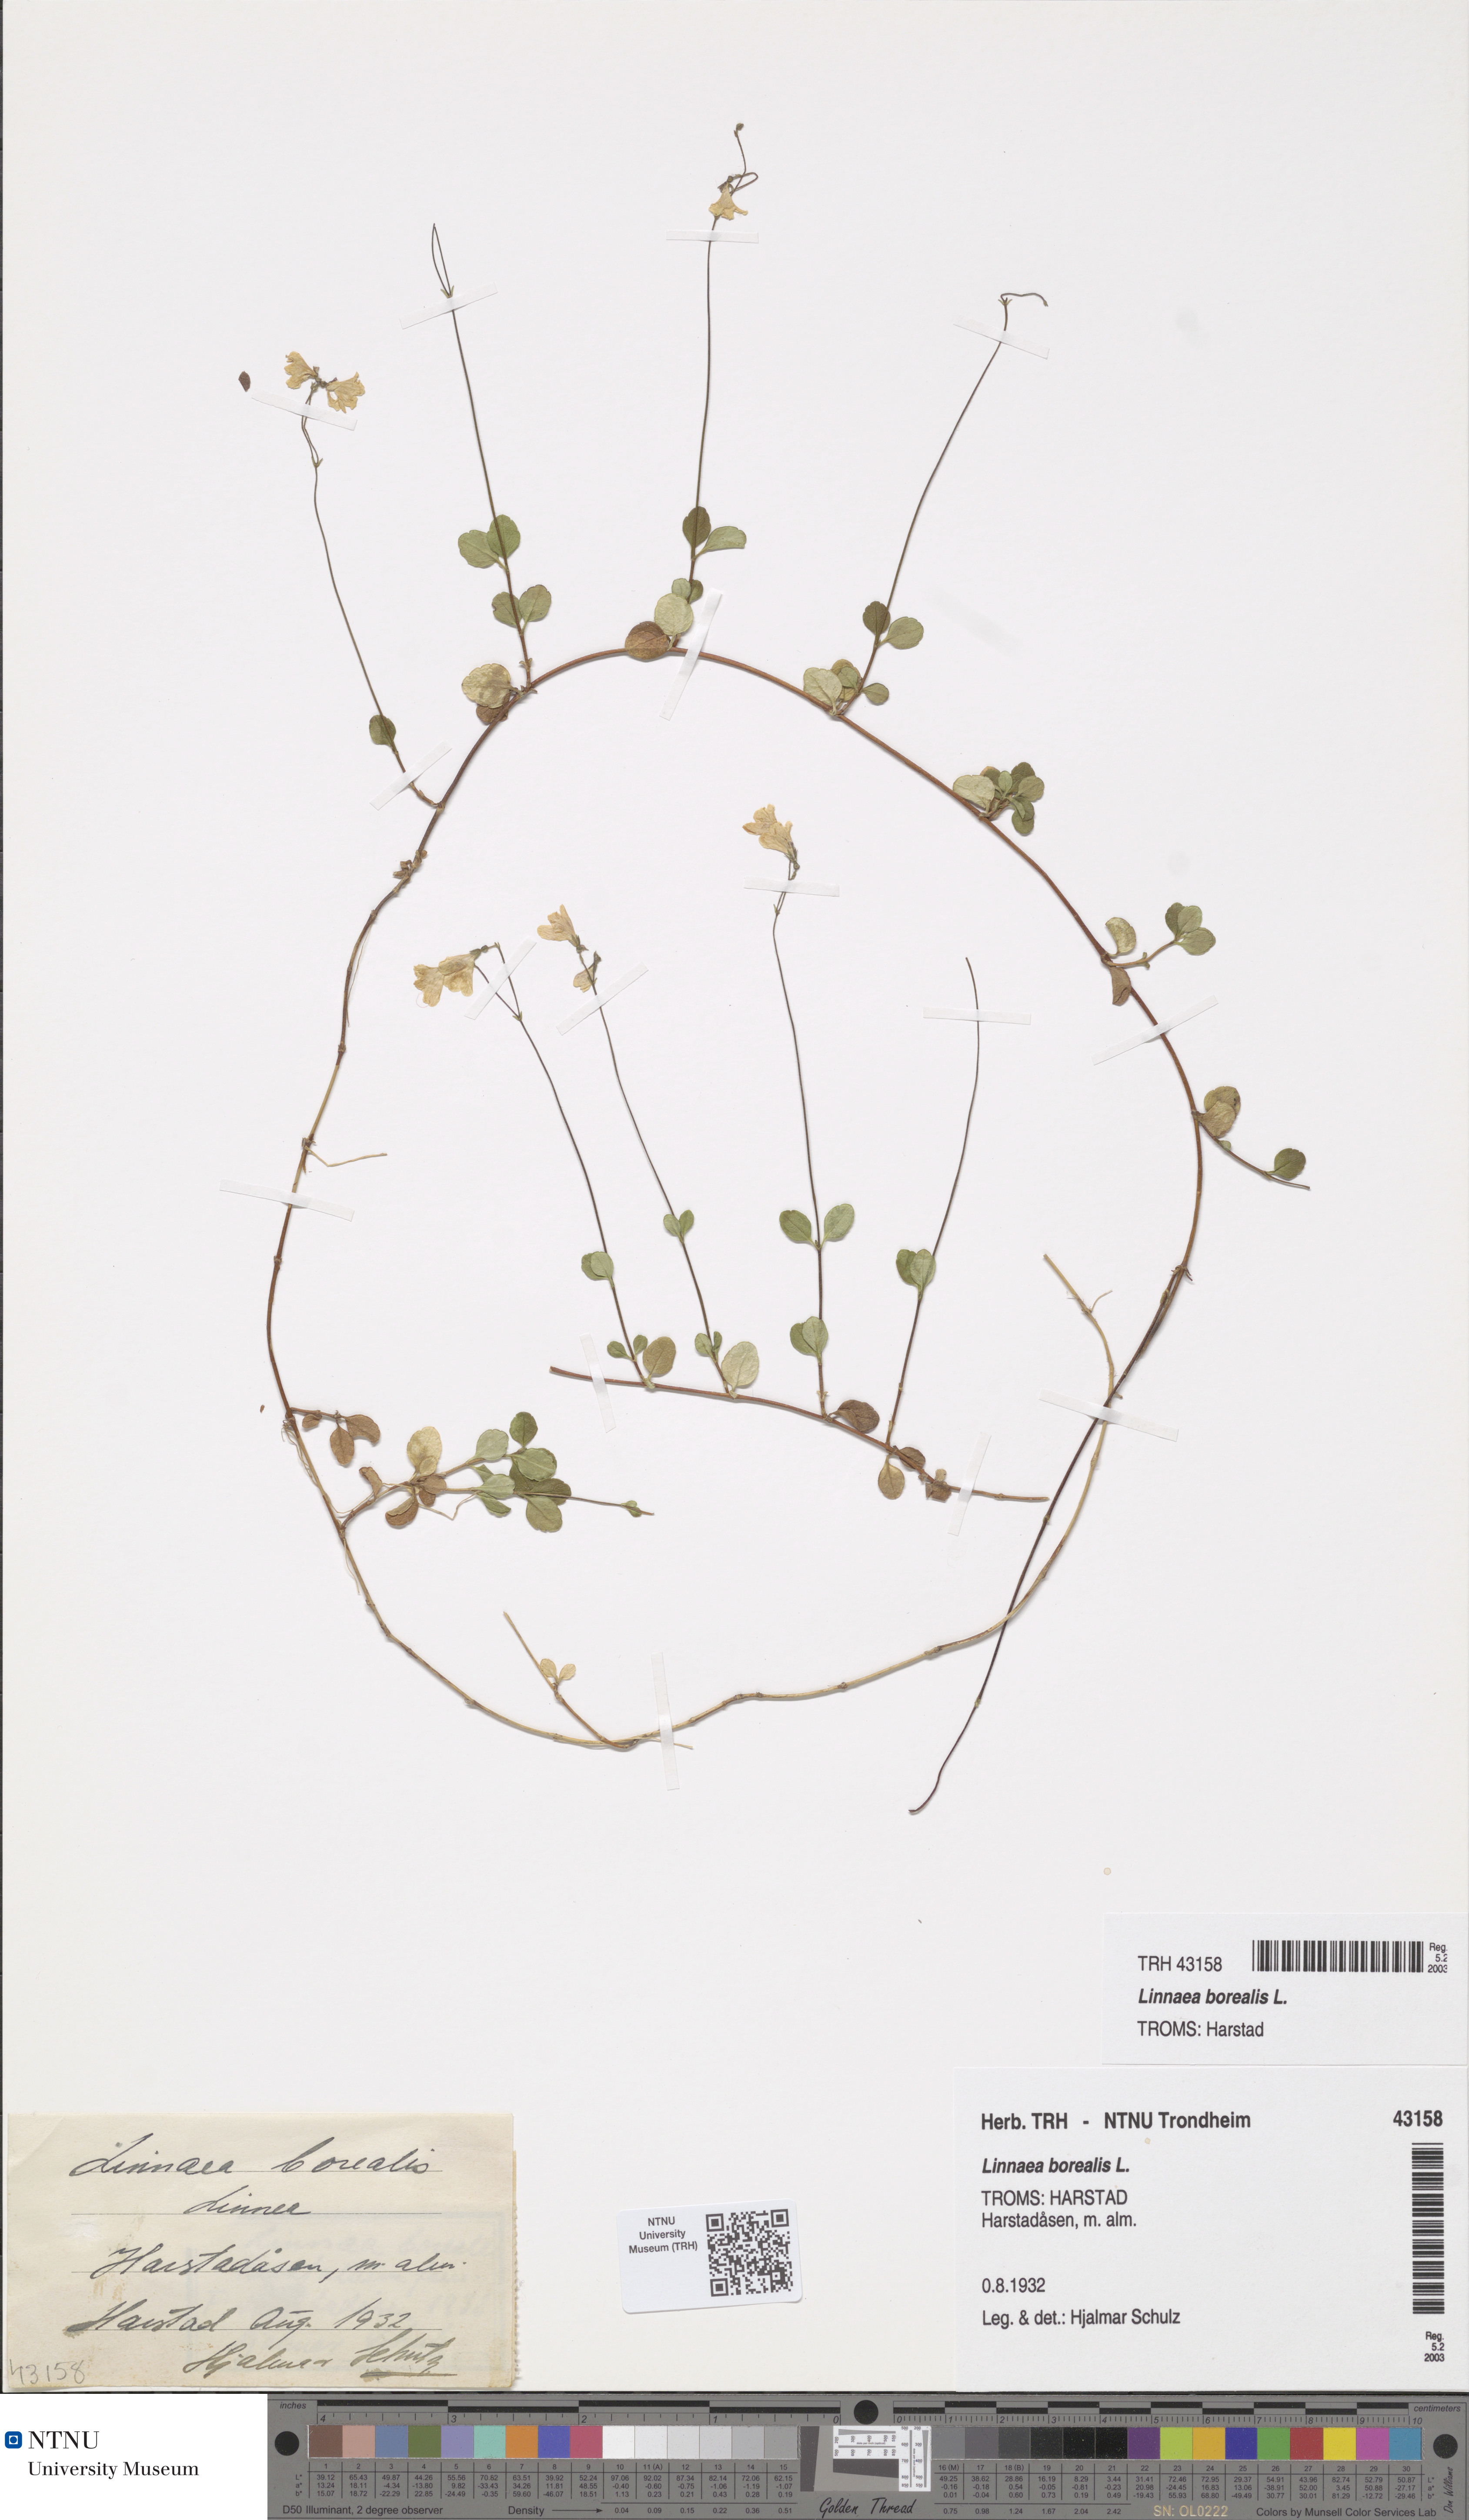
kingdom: Plantae
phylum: Tracheophyta
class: Magnoliopsida
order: Dipsacales
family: Caprifoliaceae
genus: Linnaea
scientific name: Linnaea borealis
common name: Twinflower
